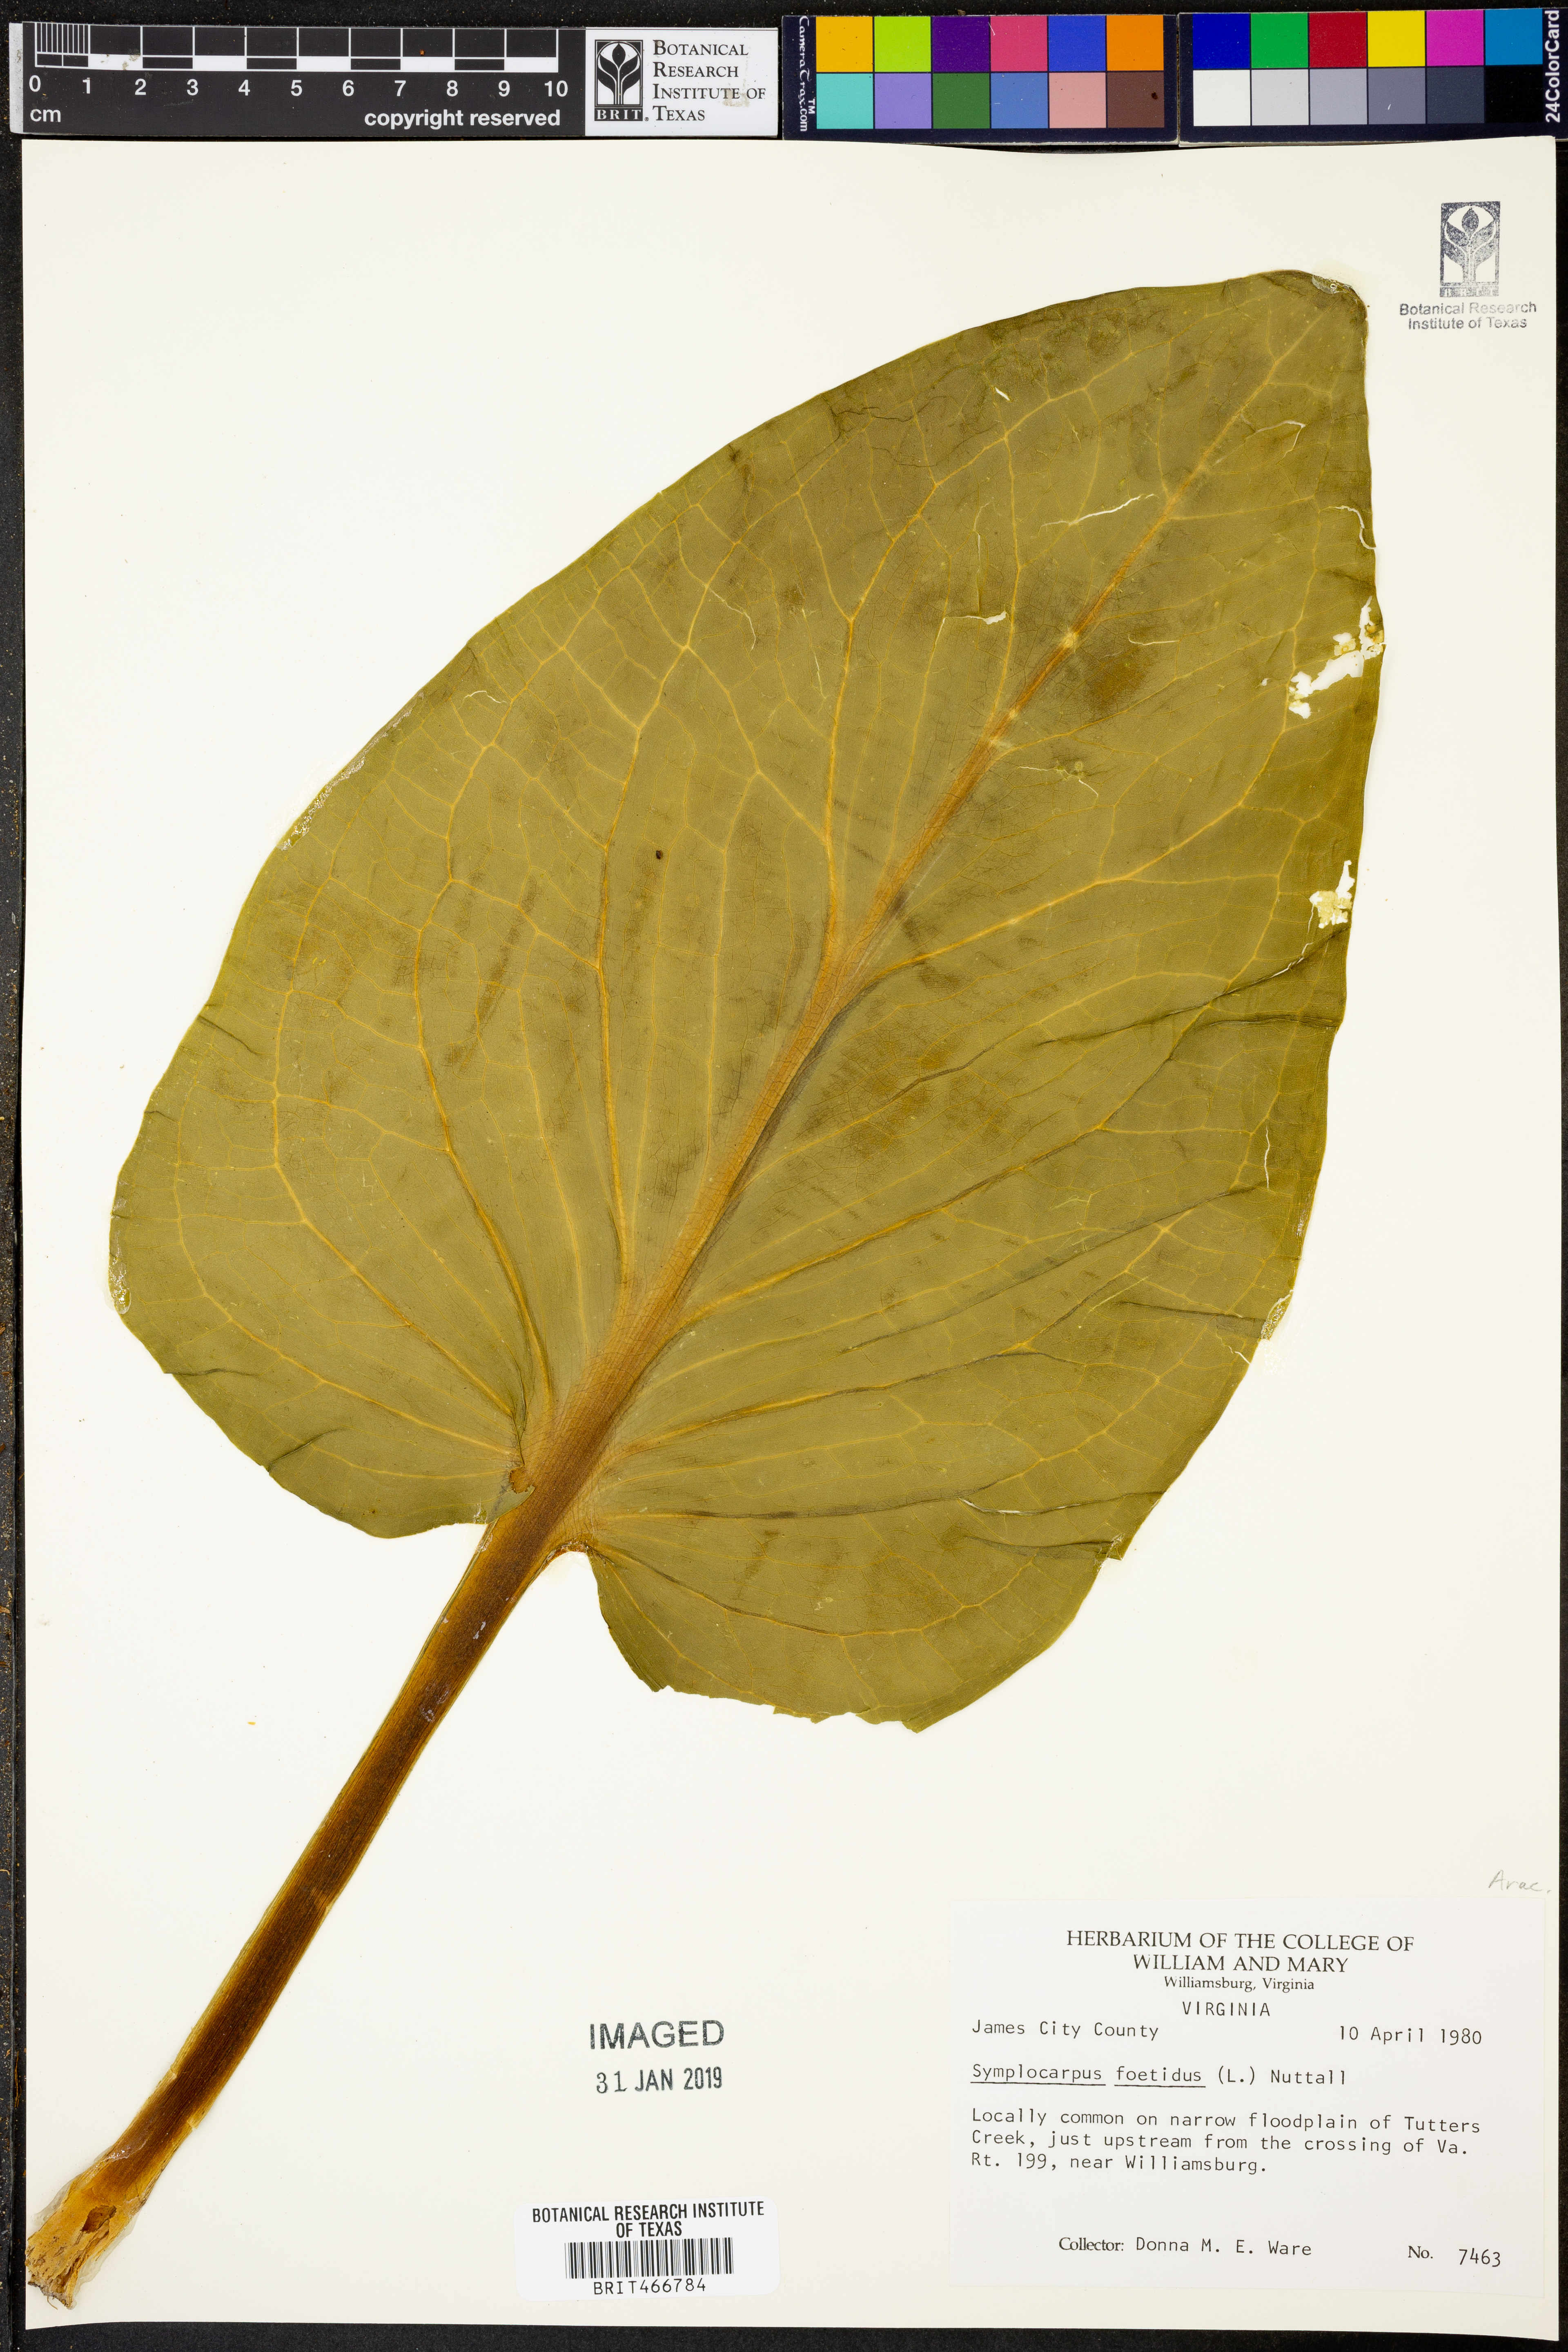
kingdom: Plantae
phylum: Tracheophyta
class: Liliopsida
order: Alismatales
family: Araceae
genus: Symplocarpus
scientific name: Symplocarpus foetidus
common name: Eastern skunk cabbage
